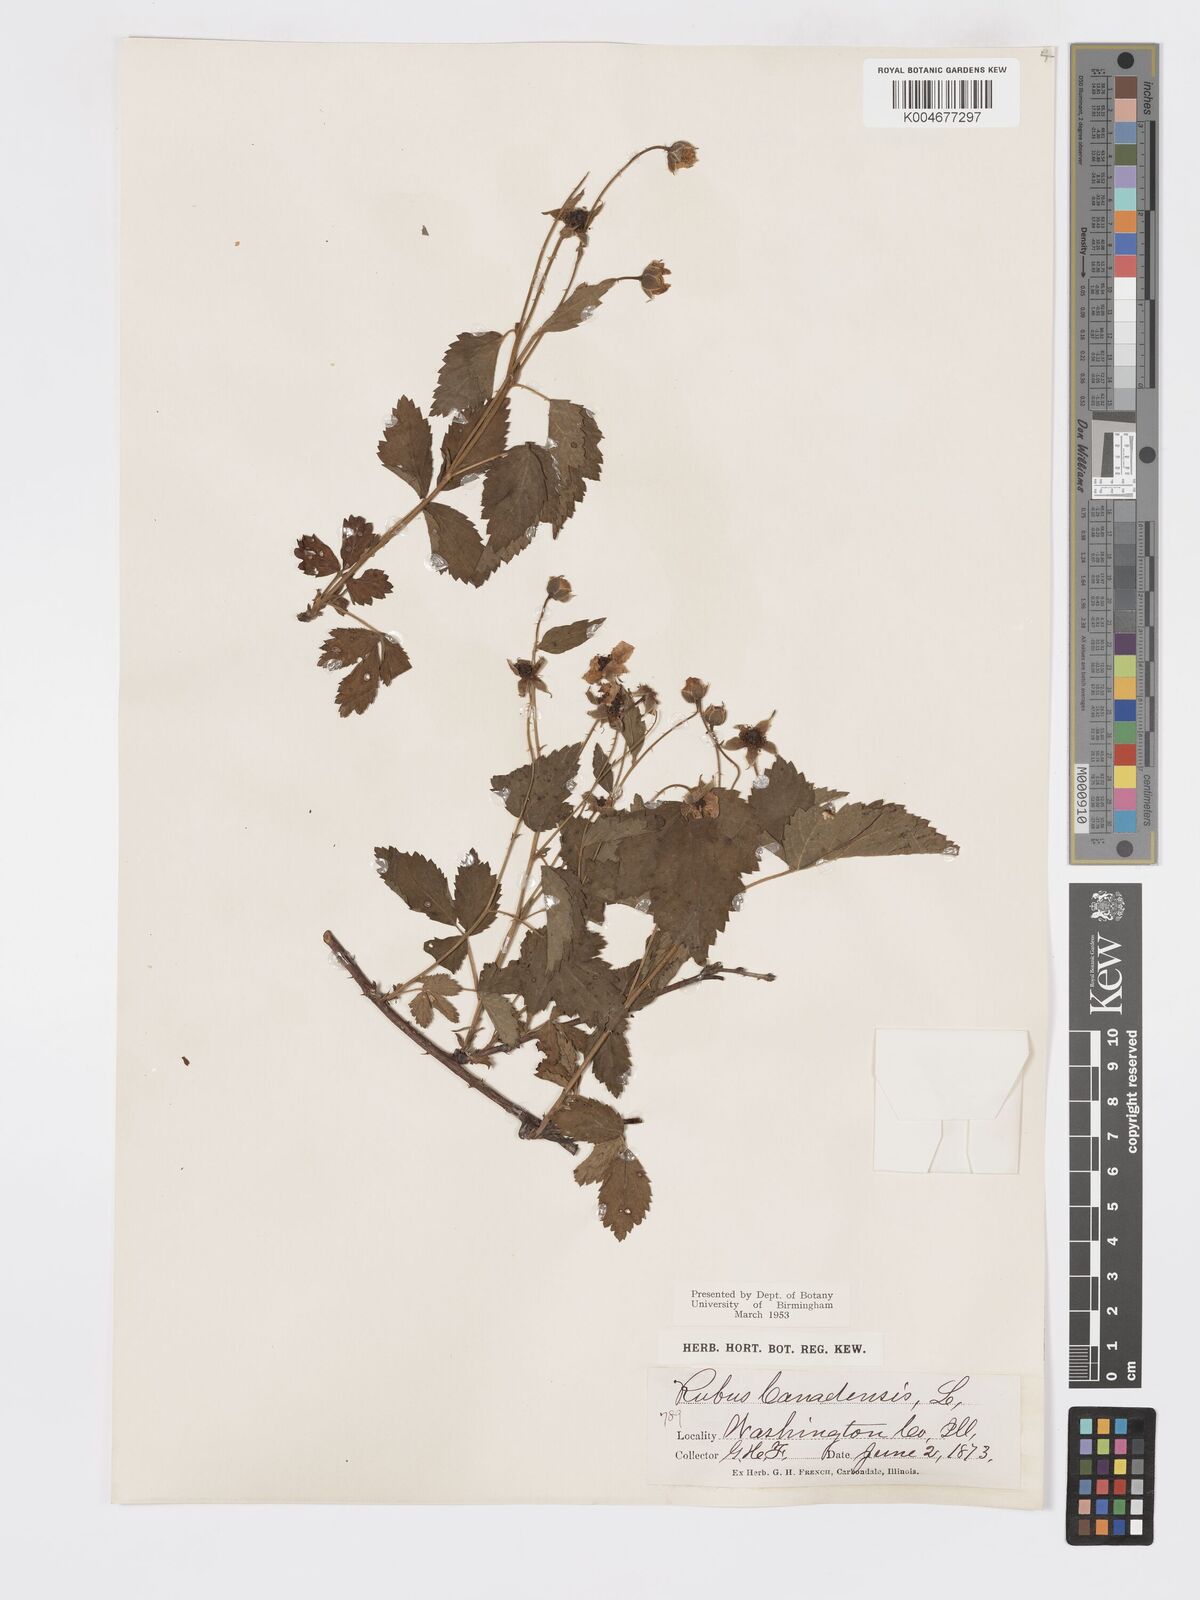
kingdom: Plantae
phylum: Tracheophyta
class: Magnoliopsida
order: Rosales
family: Rosaceae
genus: Rubus
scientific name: Rubus canadensis
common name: Smooth blackberry
